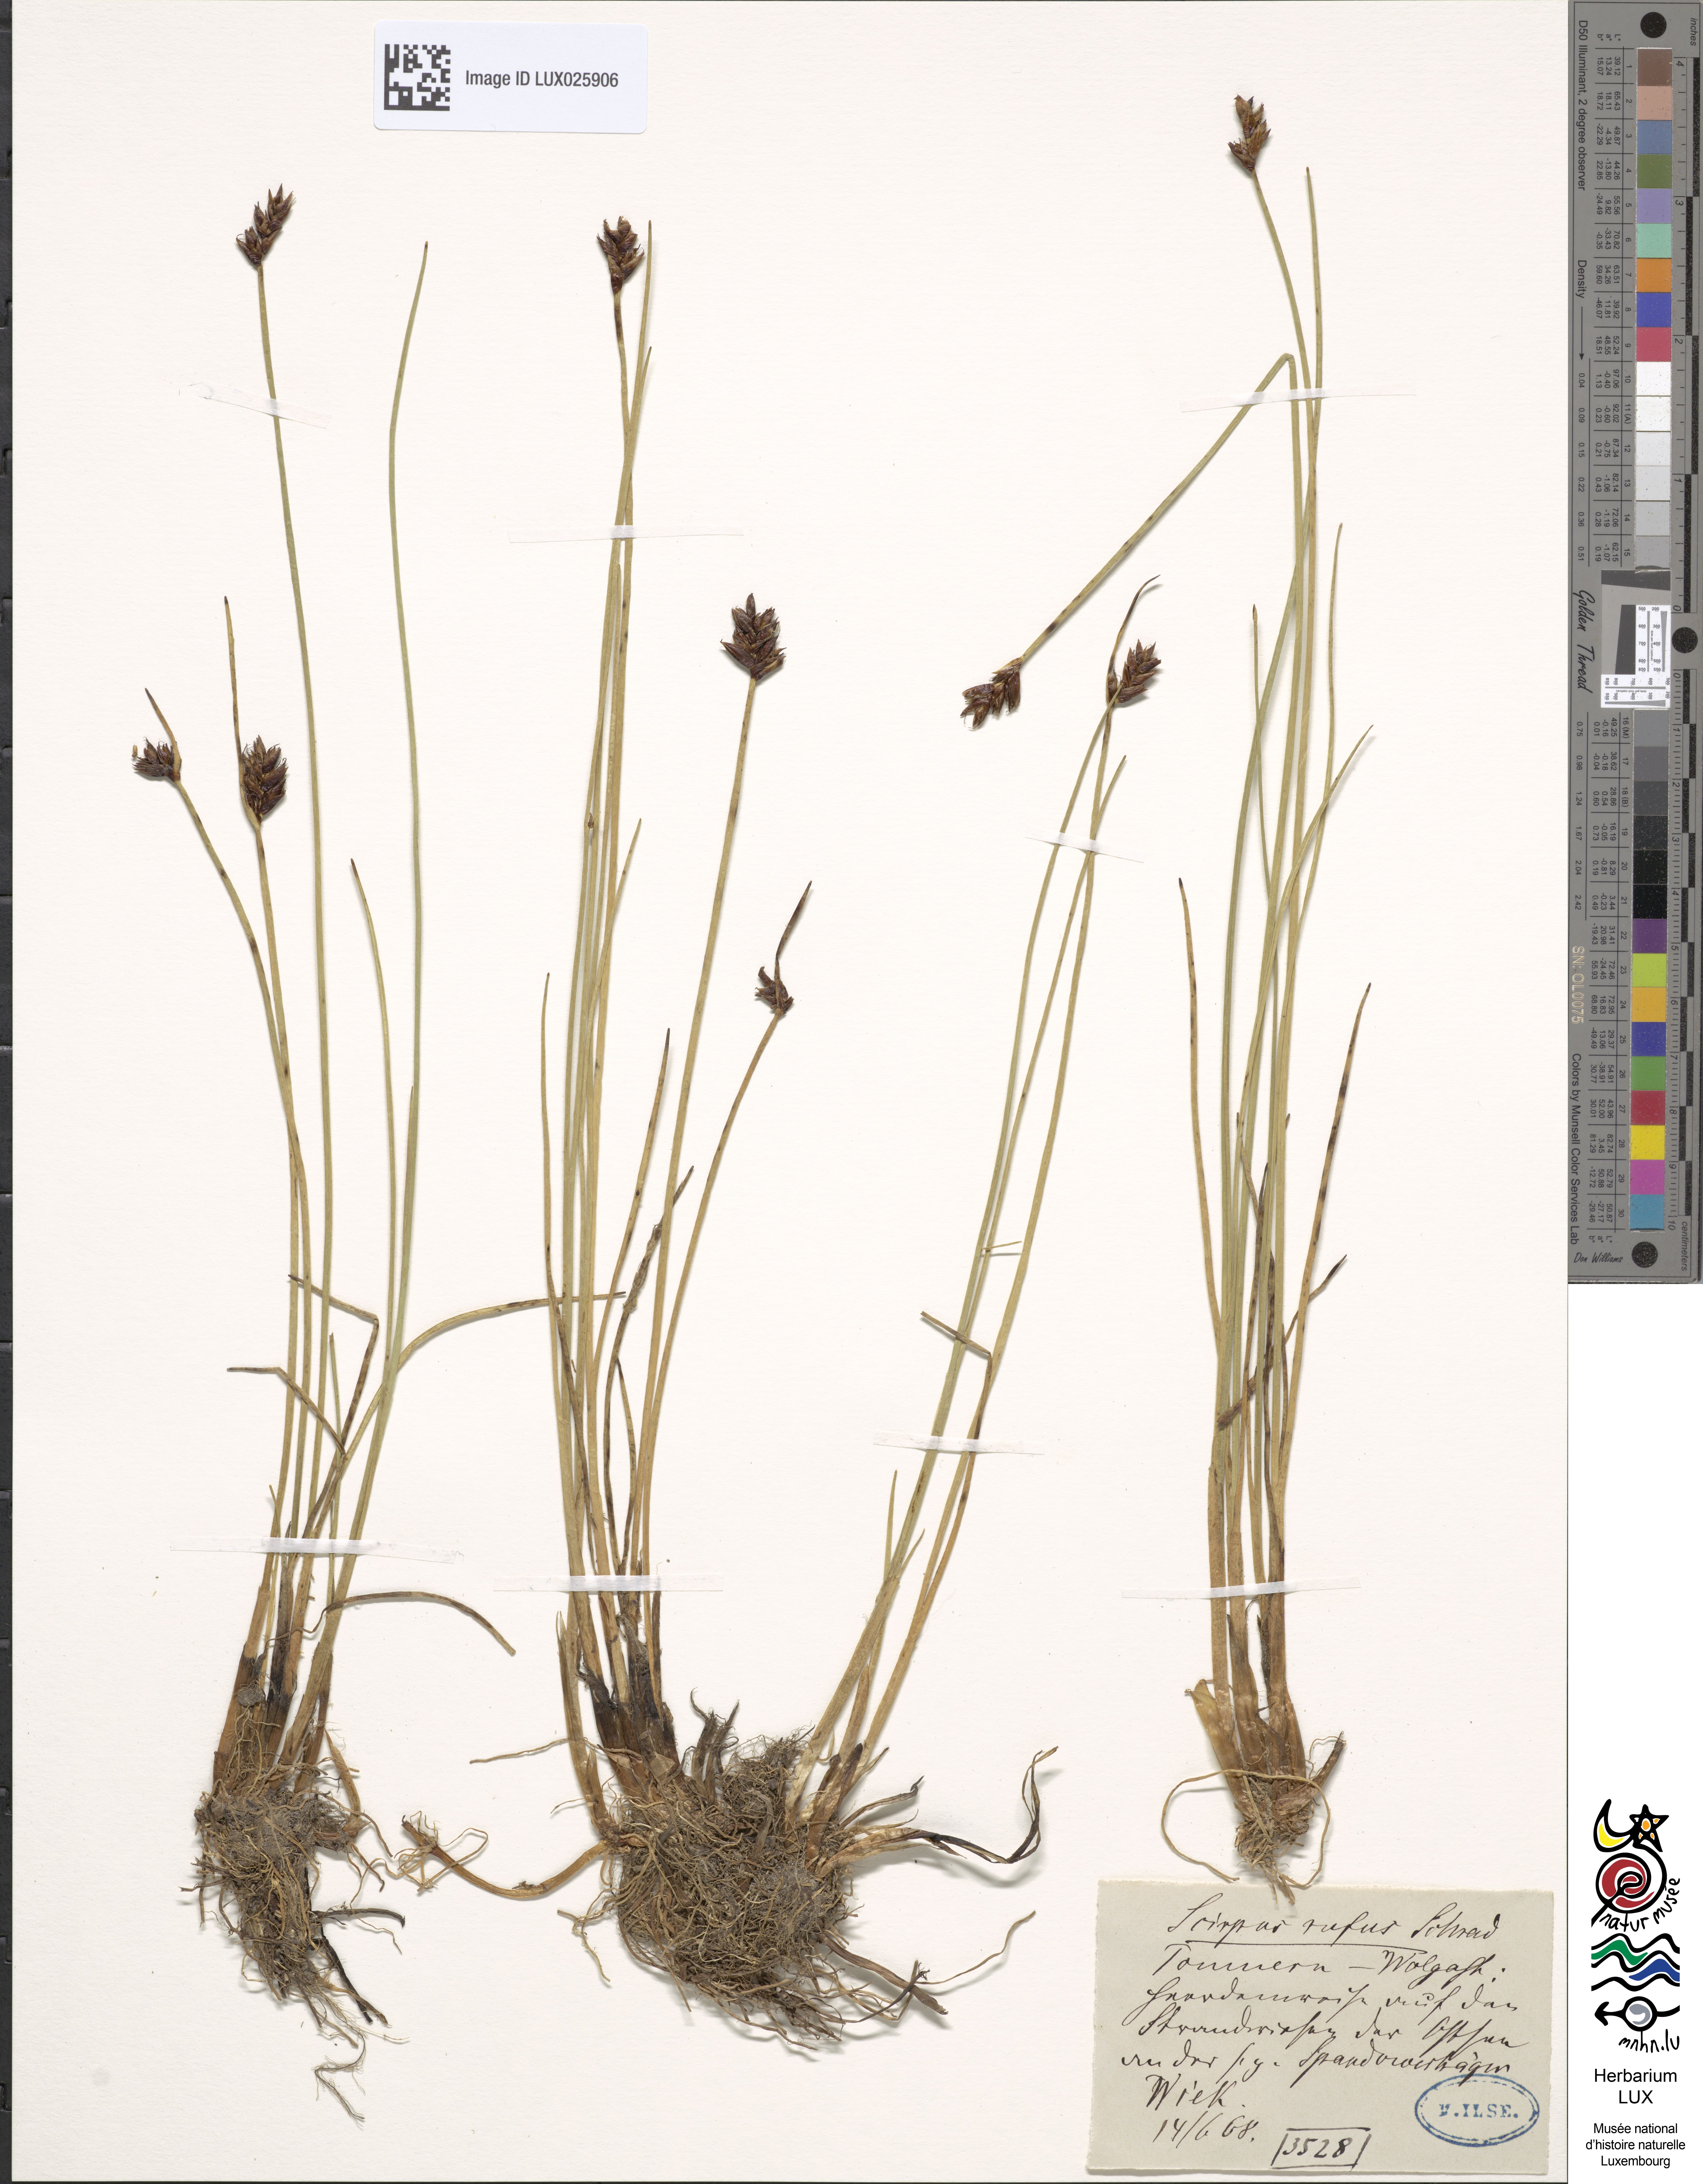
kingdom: Plantae
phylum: Tracheophyta
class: Liliopsida
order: Poales
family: Cyperaceae
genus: Blysmus
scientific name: Blysmus rufus
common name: Saltmarsh flat-sedge
